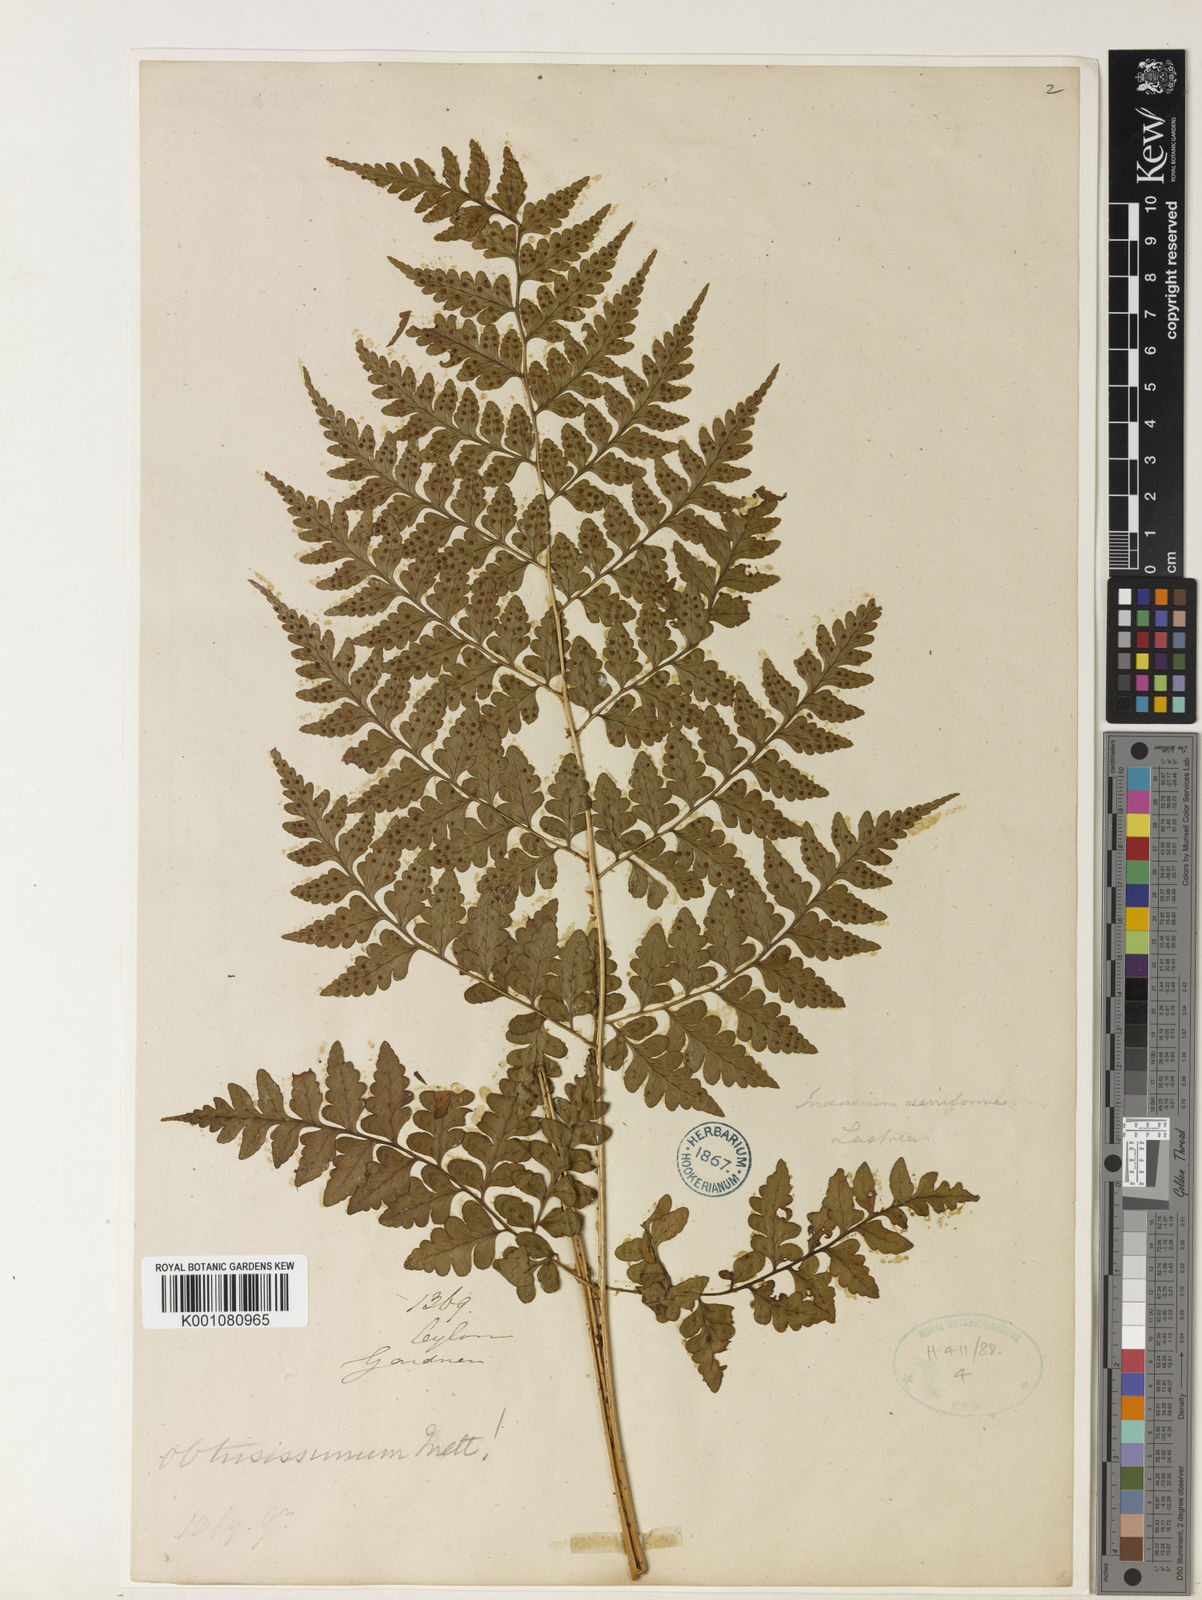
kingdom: Plantae
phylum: Tracheophyta
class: Polypodiopsida
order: Polypodiales
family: Dryopteridaceae
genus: Dryopteris
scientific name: Dryopteris
